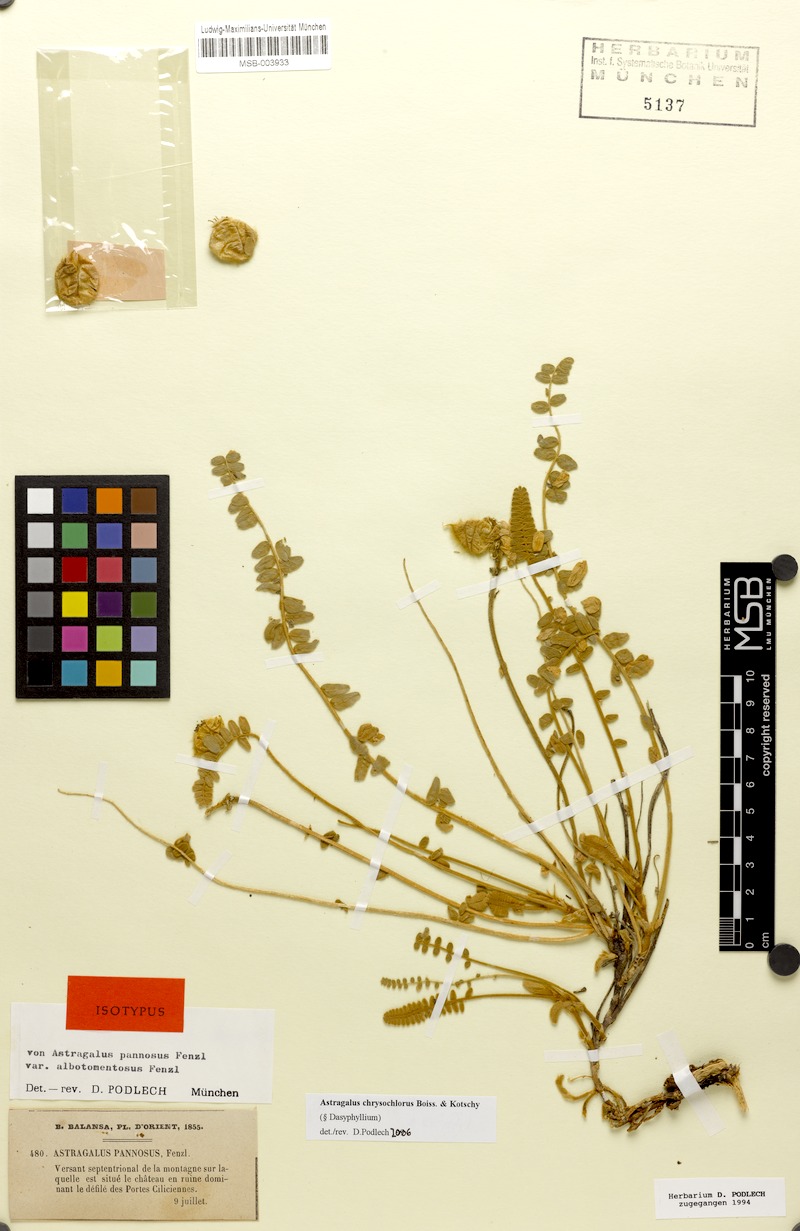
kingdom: Plantae
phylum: Tracheophyta
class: Magnoliopsida
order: Fabales
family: Fabaceae
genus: Astragalus
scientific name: Astragalus chrysochlorus
